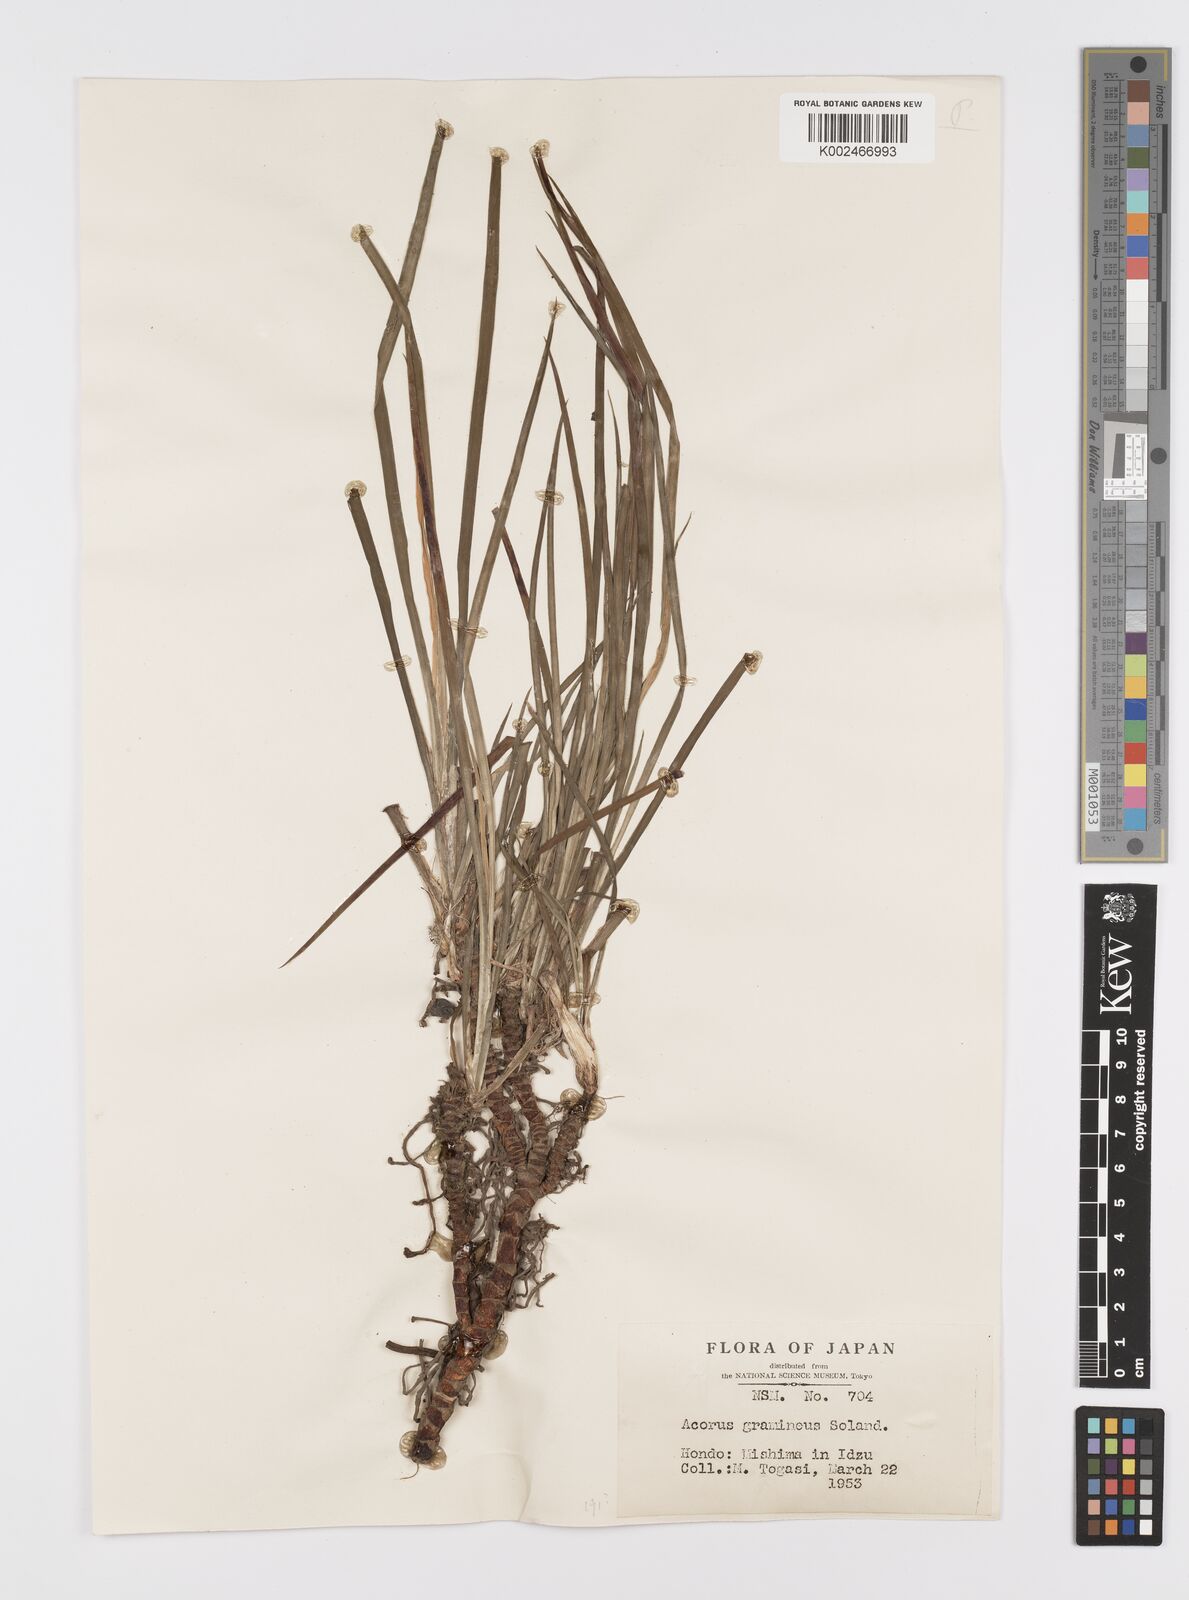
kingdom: Plantae
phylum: Tracheophyta
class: Liliopsida
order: Acorales
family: Acoraceae
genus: Acorus
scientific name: Acorus gramineus
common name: Slender sweet-flag
